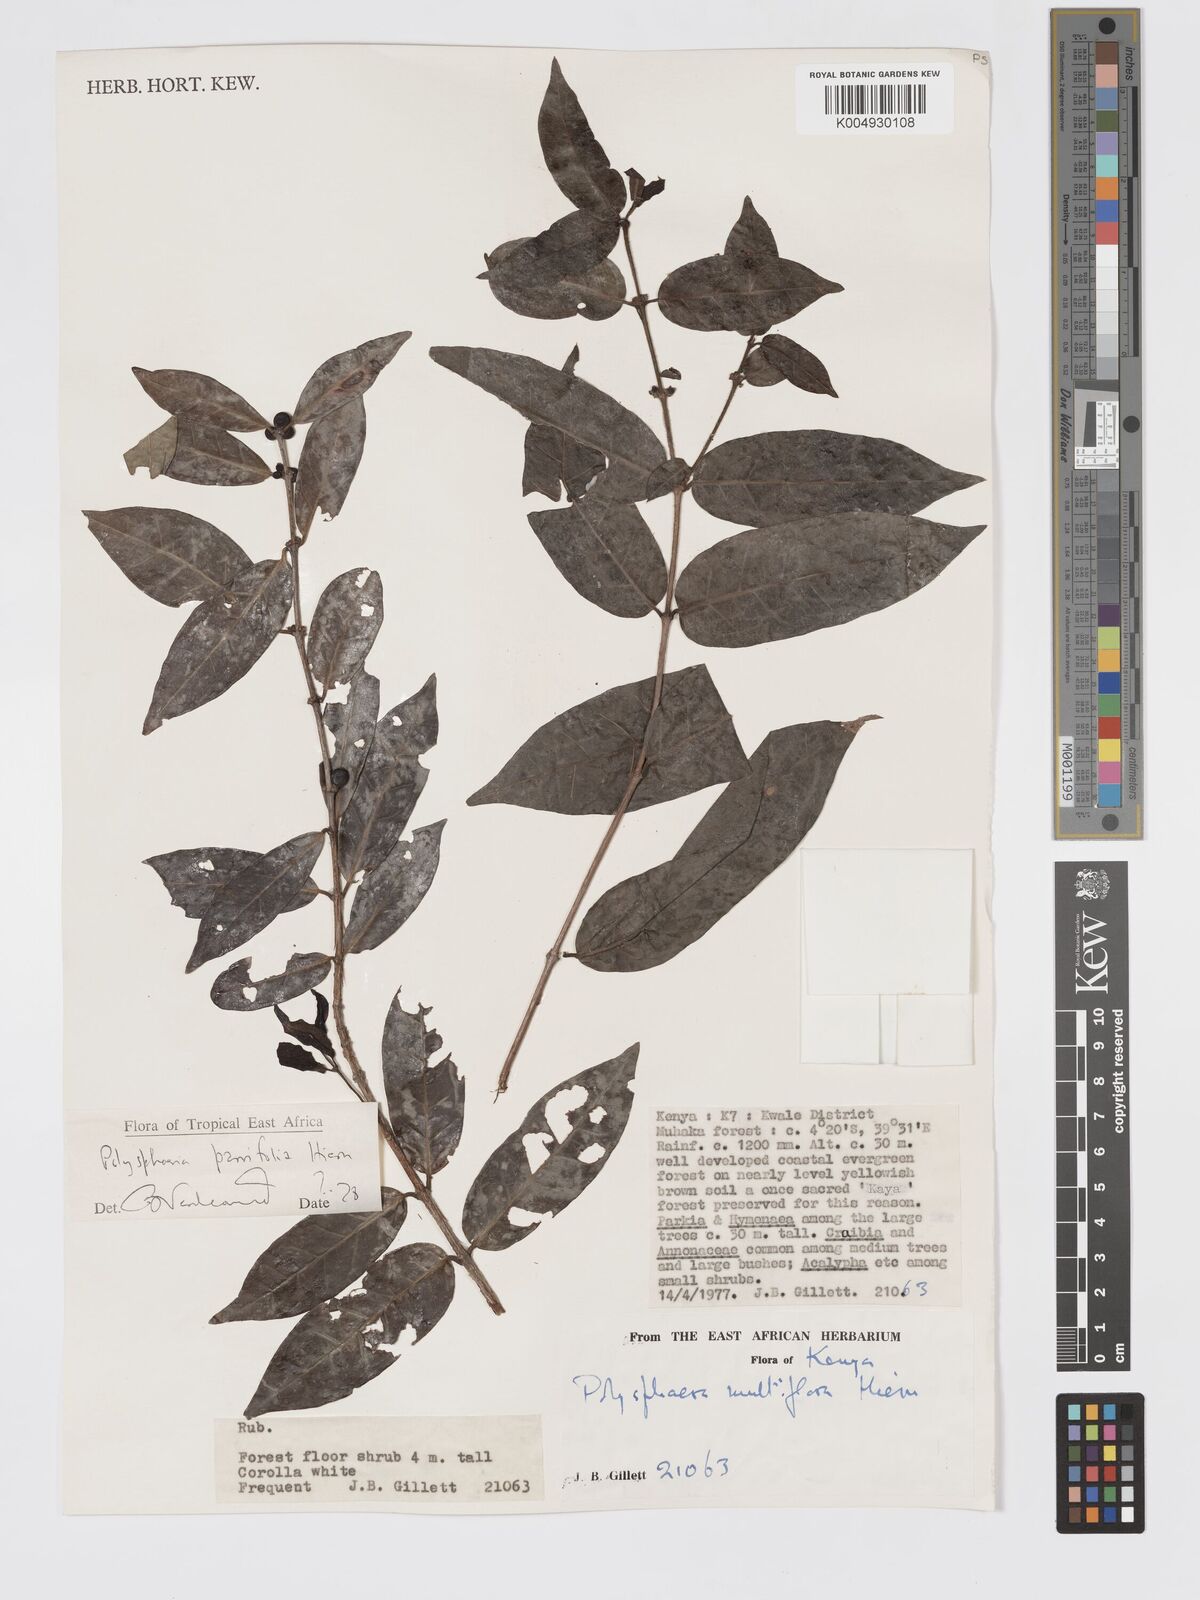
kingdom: Plantae
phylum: Tracheophyta
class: Magnoliopsida
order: Gentianales
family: Rubiaceae
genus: Polysphaeria
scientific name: Polysphaeria parvifolia
